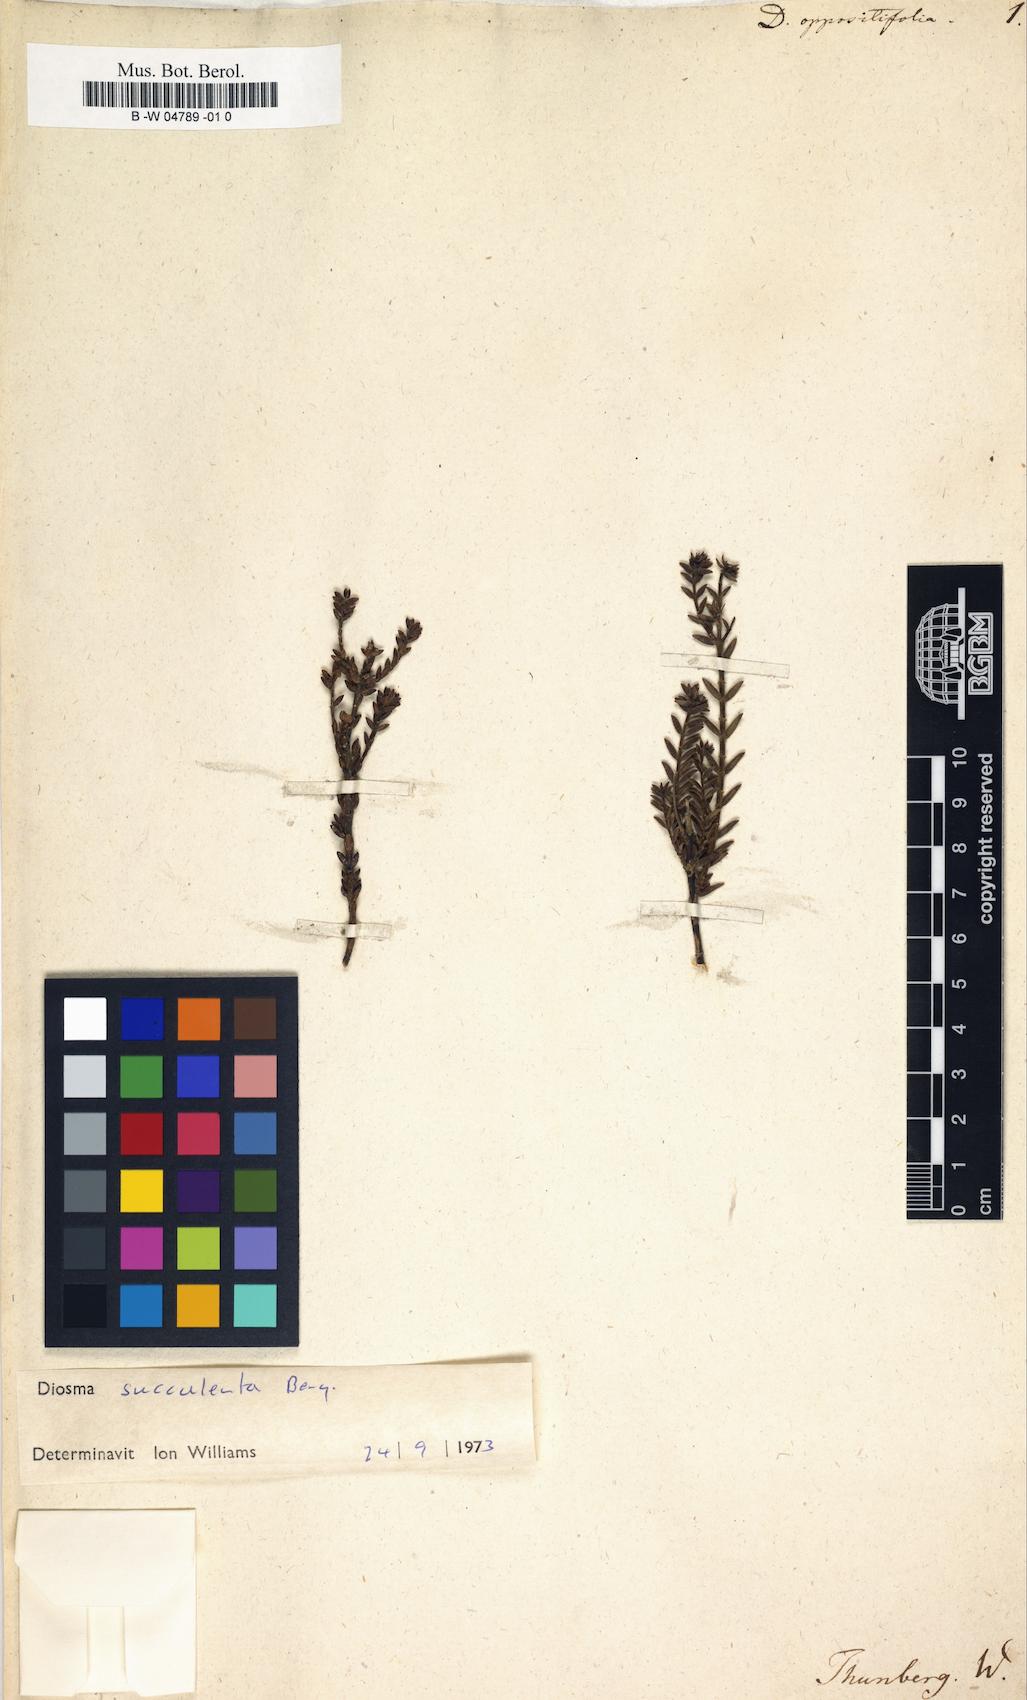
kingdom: Plantae
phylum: Tracheophyta
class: Magnoliopsida
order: Sapindales
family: Rutaceae
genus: Diosma
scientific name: Diosma oppositifolia
